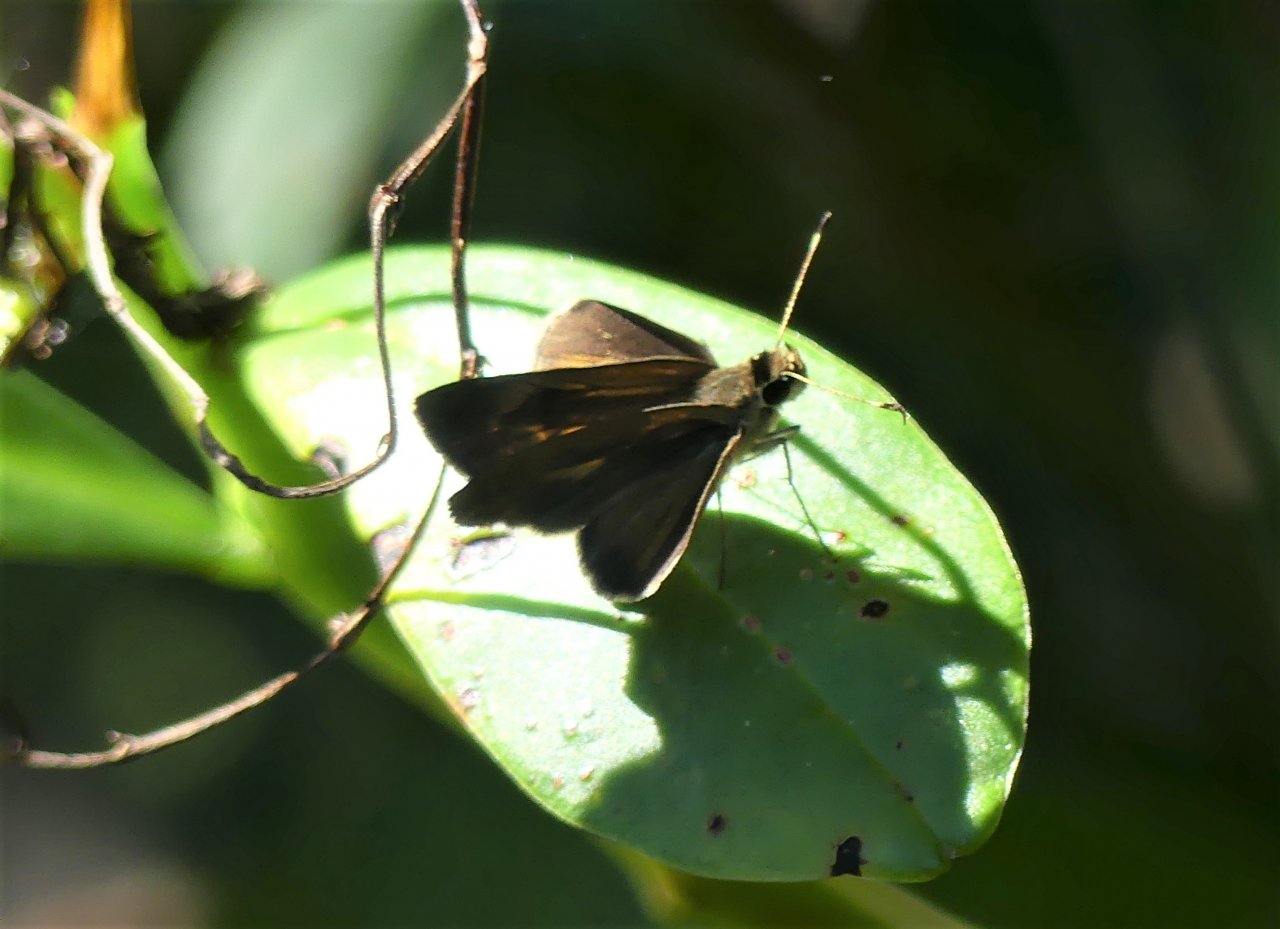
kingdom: Animalia
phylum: Arthropoda
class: Insecta
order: Lepidoptera
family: Hesperiidae
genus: Cantha
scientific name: Cantha roraimae
